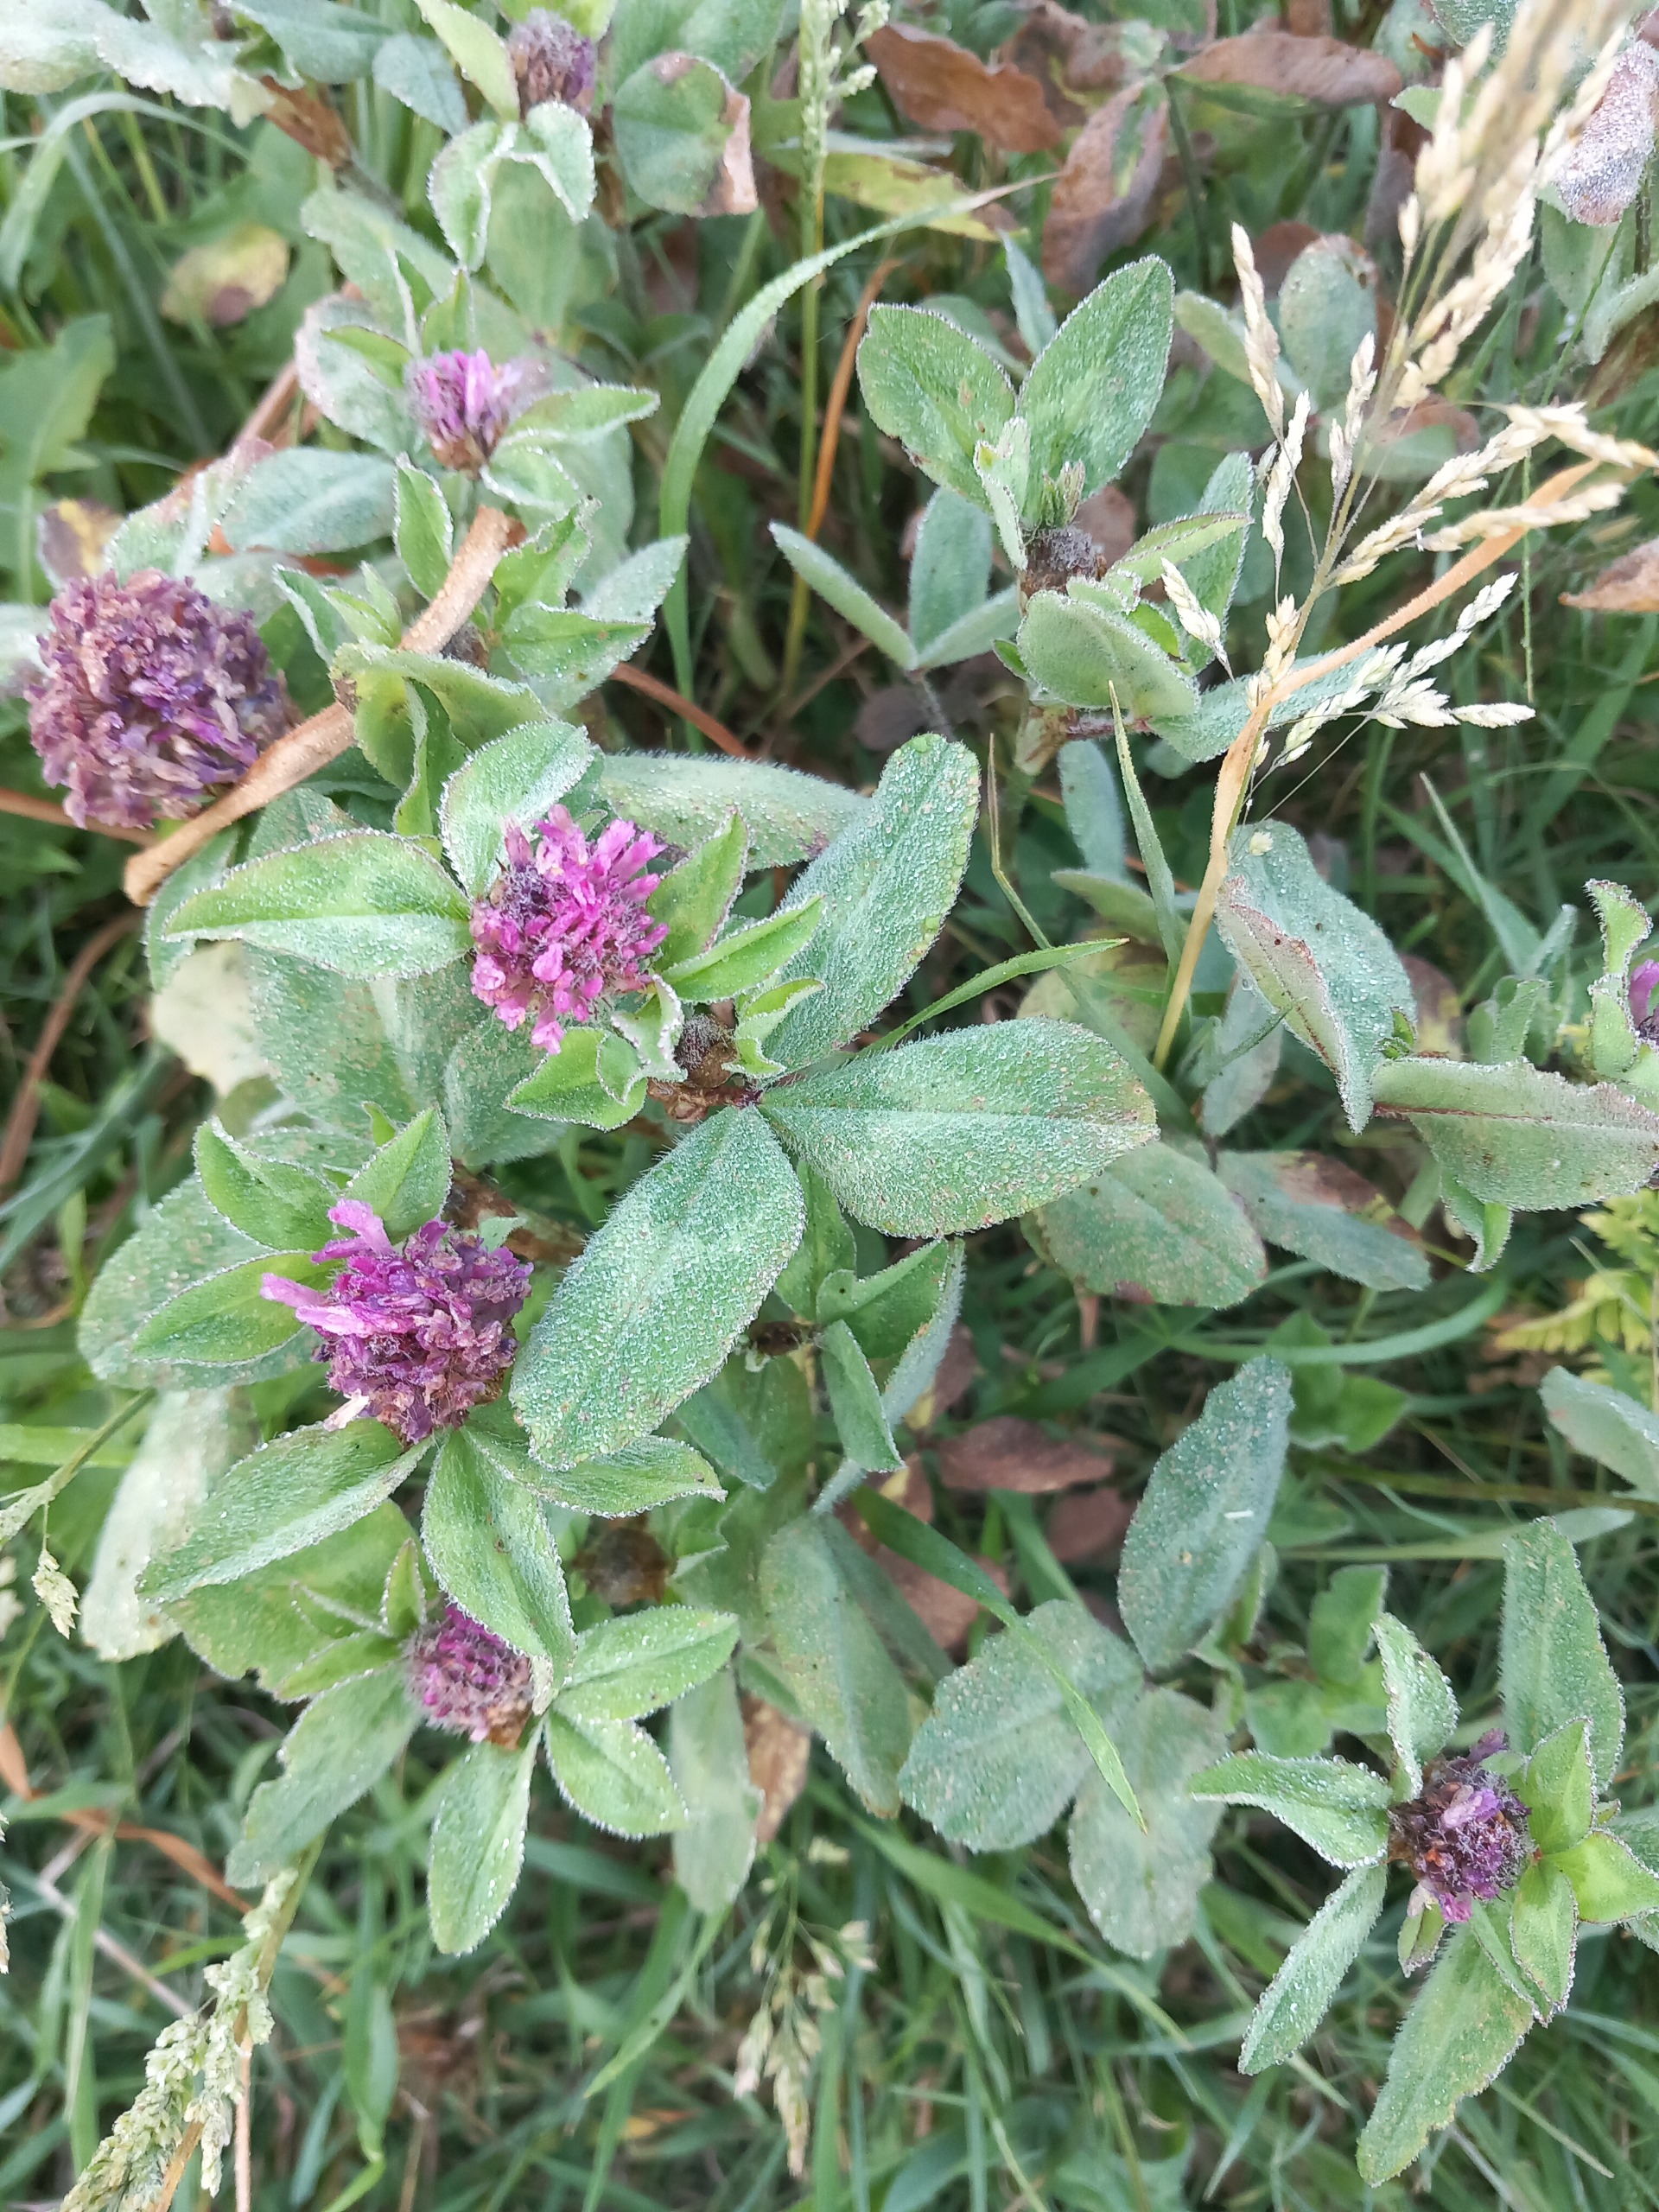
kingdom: Plantae
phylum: Tracheophyta
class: Magnoliopsida
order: Fabales
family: Fabaceae
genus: Trifolium
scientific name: Trifolium pratense
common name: Rød-kløver
